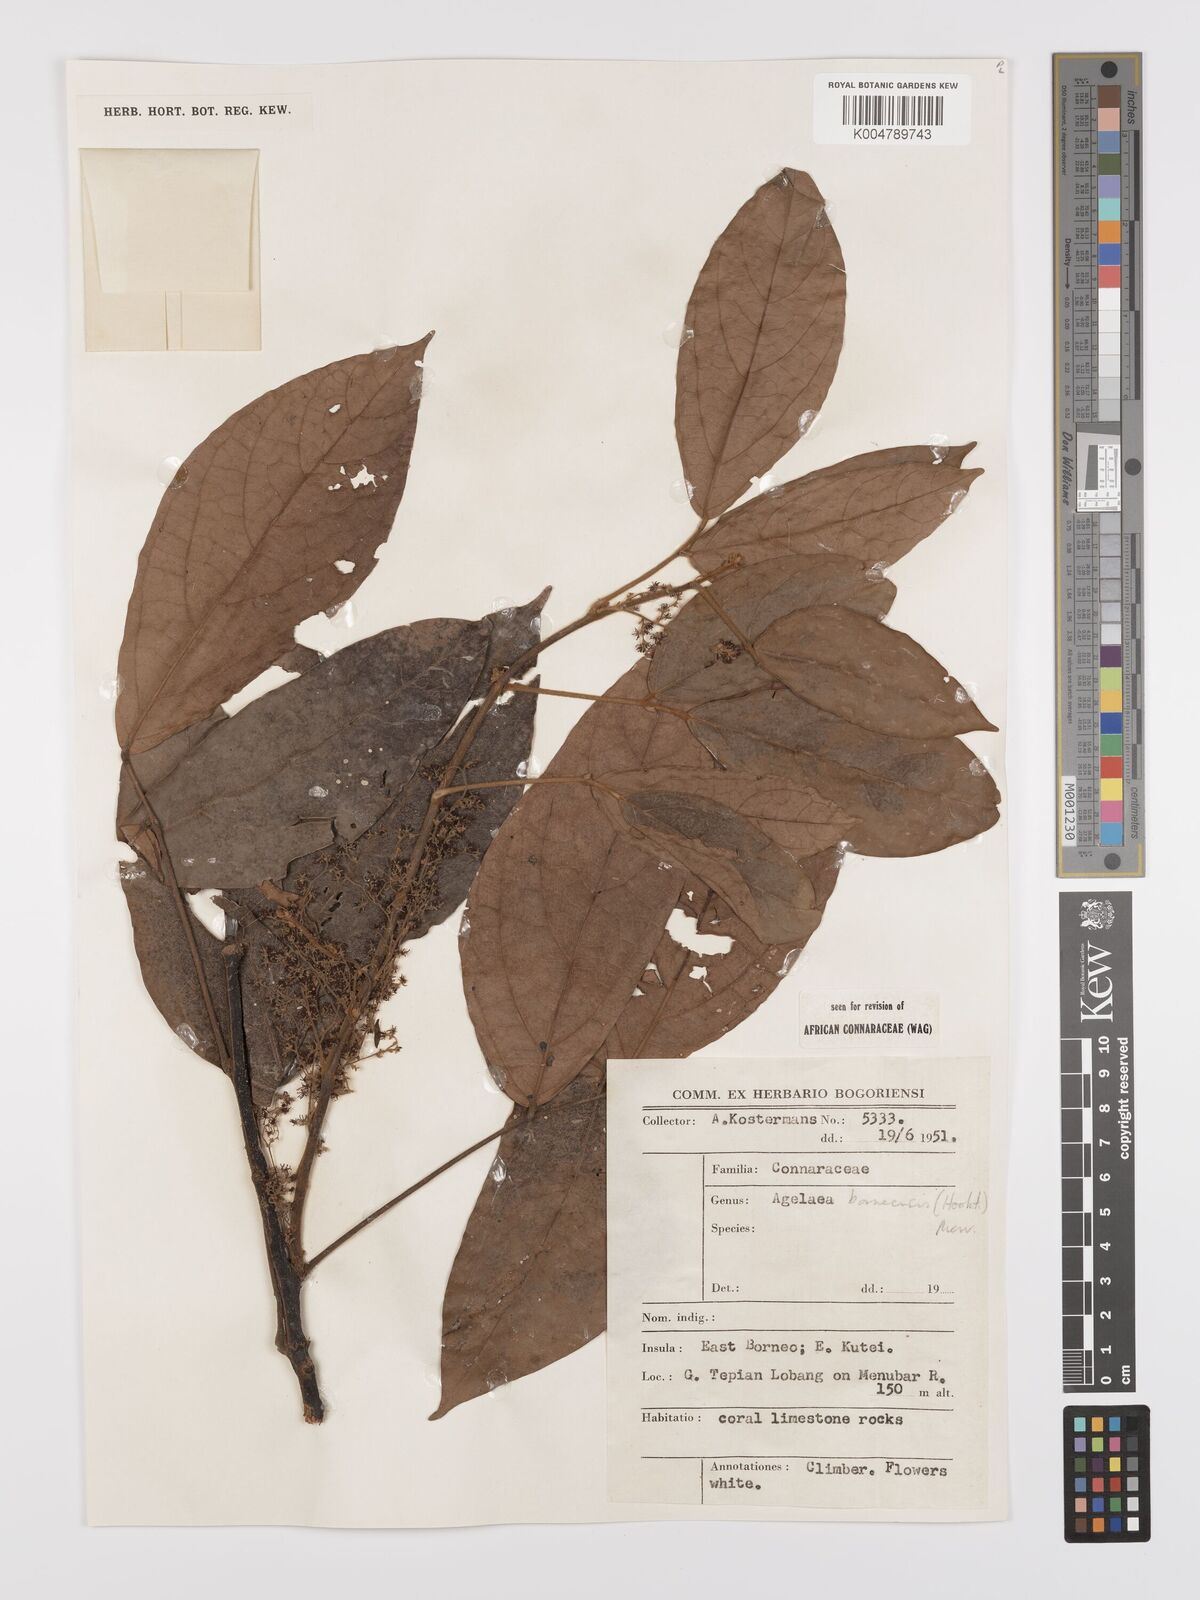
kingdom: Plantae
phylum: Tracheophyta
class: Magnoliopsida
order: Oxalidales
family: Connaraceae
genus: Agelaea
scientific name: Agelaea borneensis
